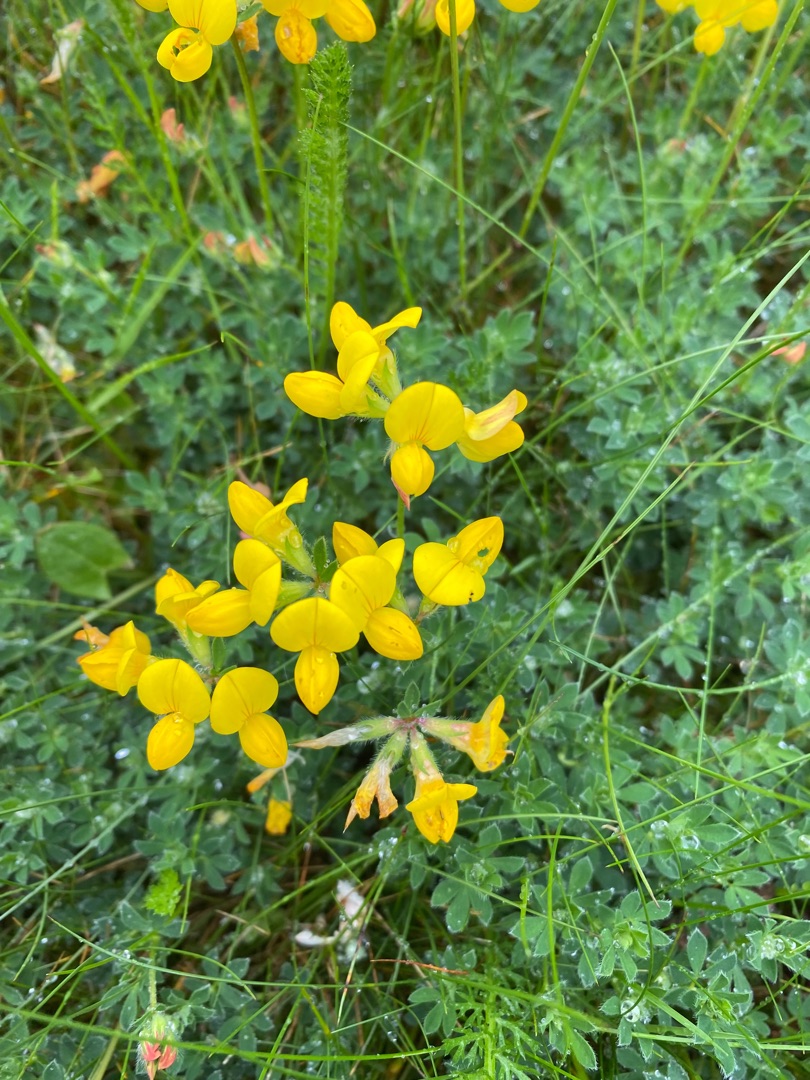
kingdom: Plantae
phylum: Tracheophyta
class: Magnoliopsida
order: Fabales
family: Fabaceae
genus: Lotus
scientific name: Lotus corniculatus
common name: Almindelig kællingetand
